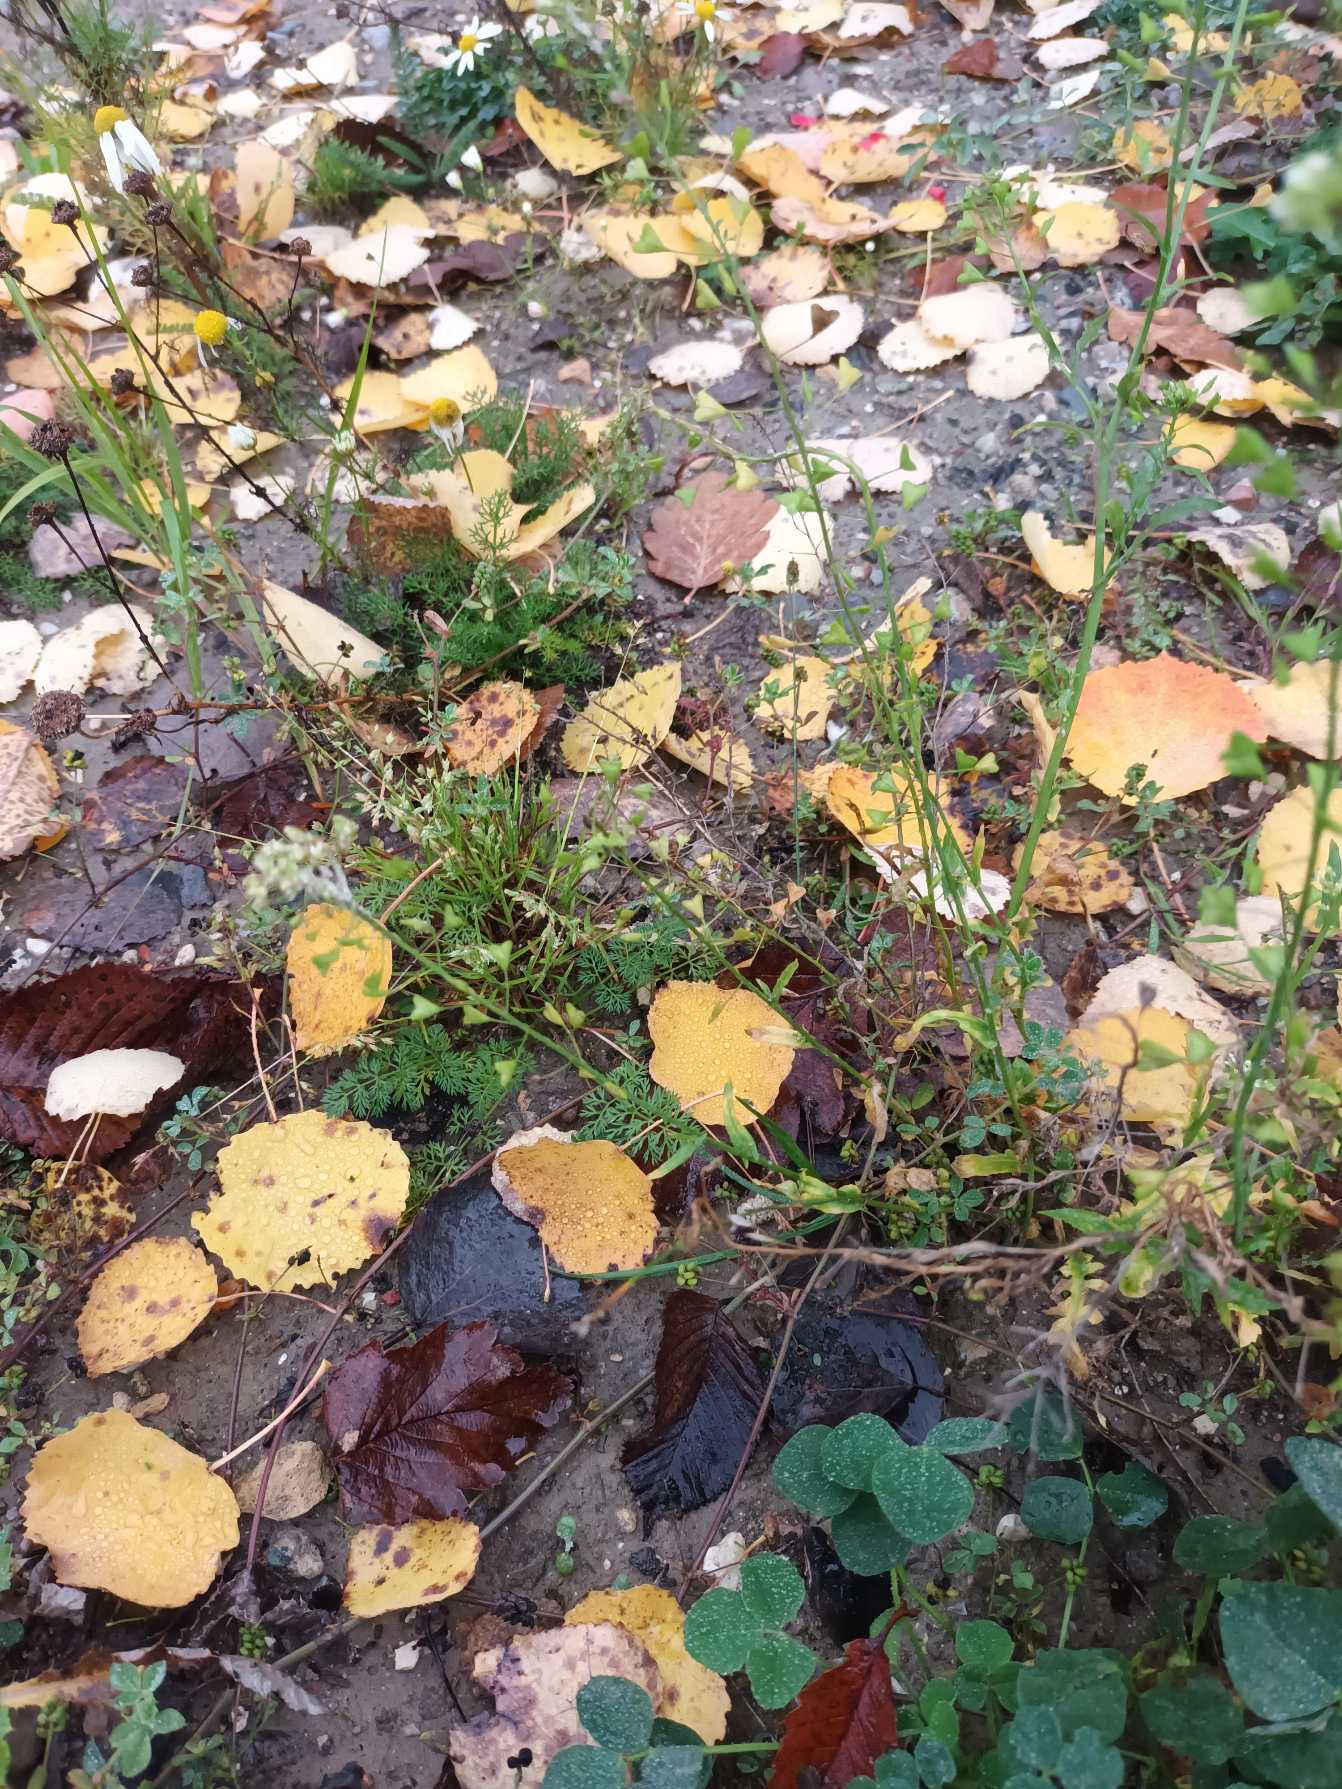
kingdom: Plantae
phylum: Tracheophyta
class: Magnoliopsida
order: Brassicales
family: Brassicaceae
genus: Capsella
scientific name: Capsella bursa-pastoris
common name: Hyrdetaske
